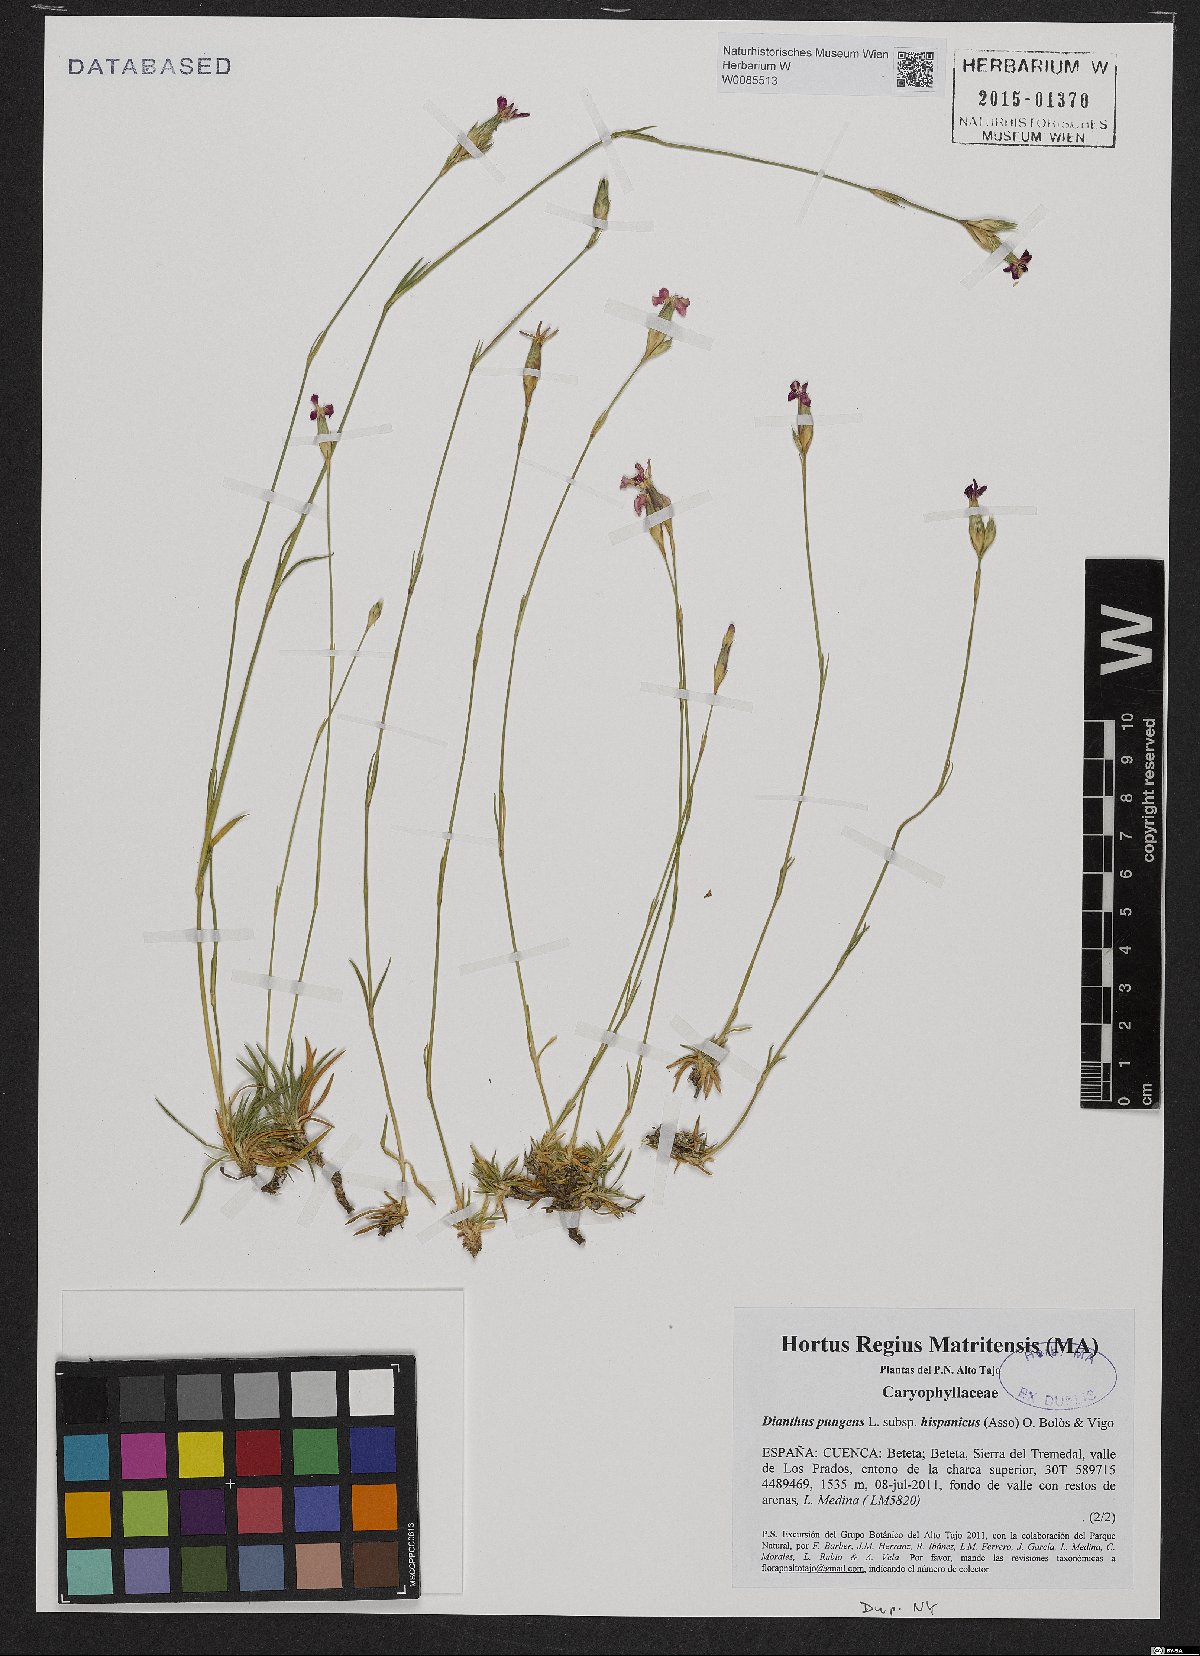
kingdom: Plantae
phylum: Tracheophyta
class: Magnoliopsida
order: Caryophyllales
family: Caryophyllaceae
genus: Dianthus
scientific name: Dianthus pungens
